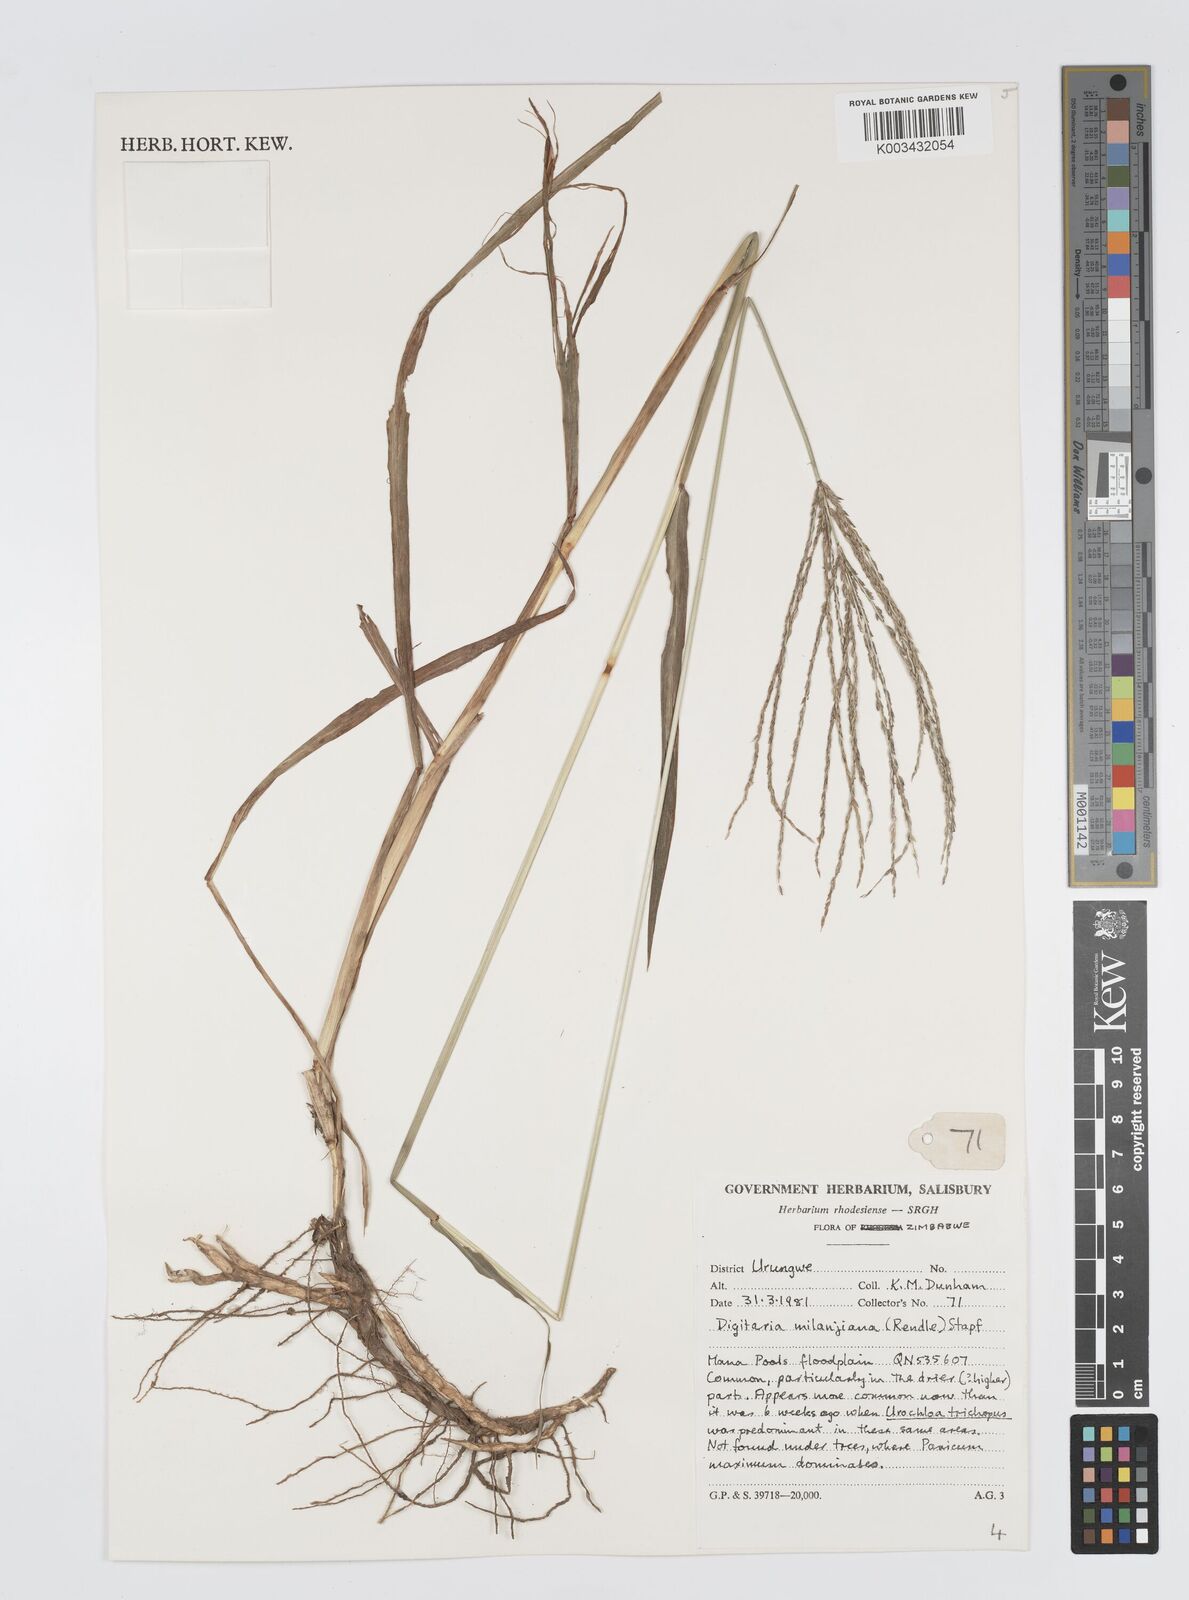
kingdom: Plantae
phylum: Tracheophyta
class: Liliopsida
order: Poales
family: Poaceae
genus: Digitaria
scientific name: Digitaria milanjiana
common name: Madagascar crabgrass
